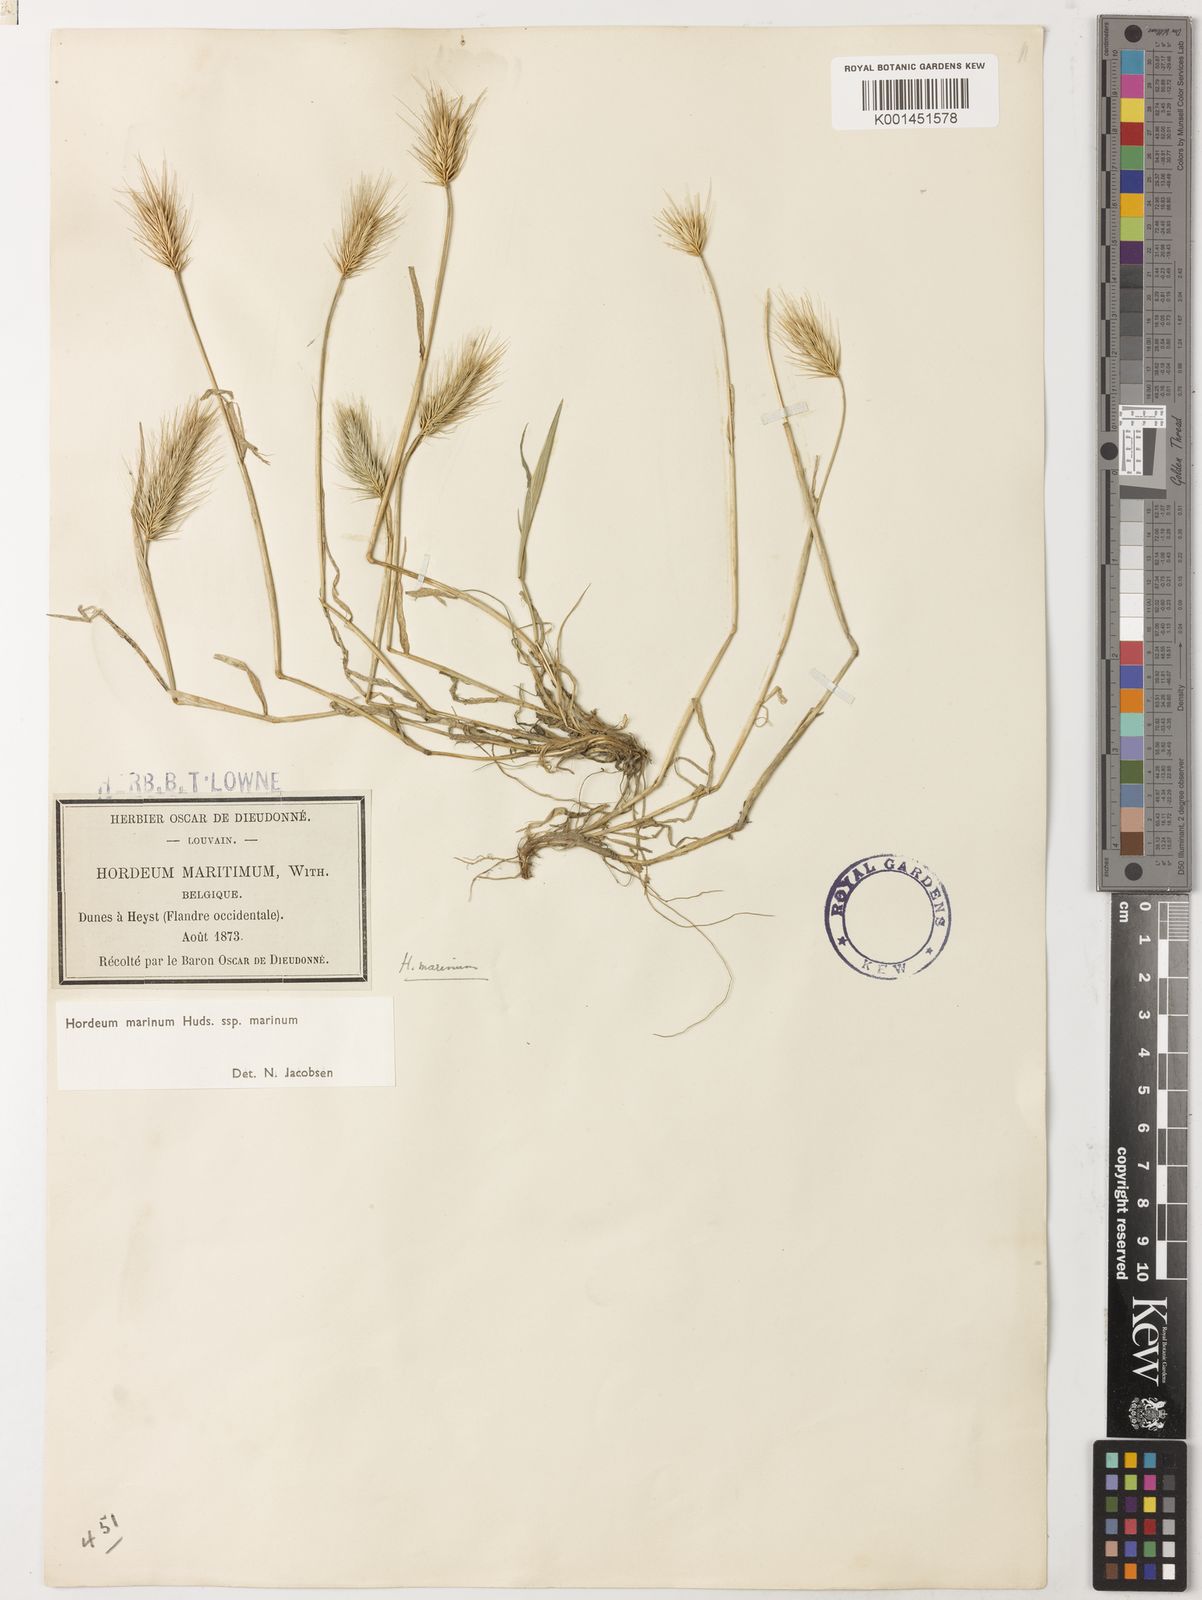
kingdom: Plantae
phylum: Tracheophyta
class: Liliopsida
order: Poales
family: Poaceae
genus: Hordeum
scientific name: Hordeum marinum
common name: Sea barley
